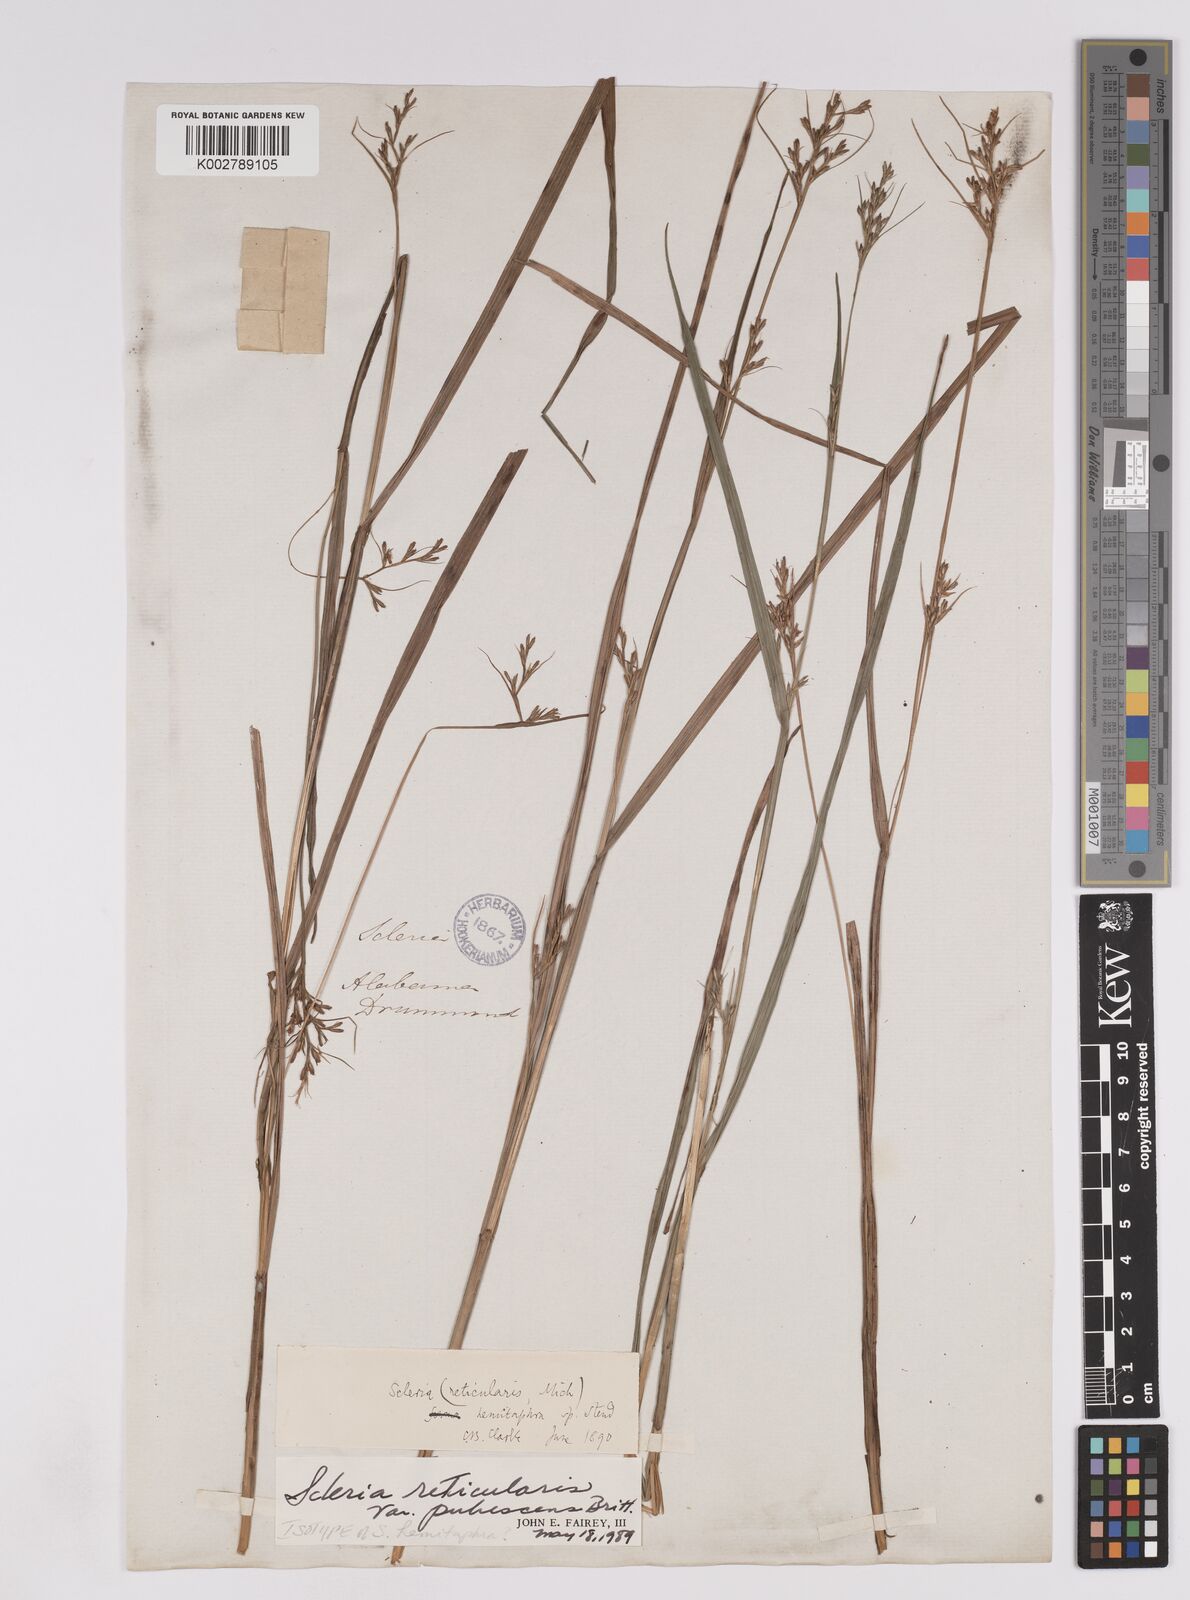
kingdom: Plantae
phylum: Tracheophyta
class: Liliopsida
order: Poales
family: Cyperaceae
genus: Scleria
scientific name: Scleria muehlenbergii
